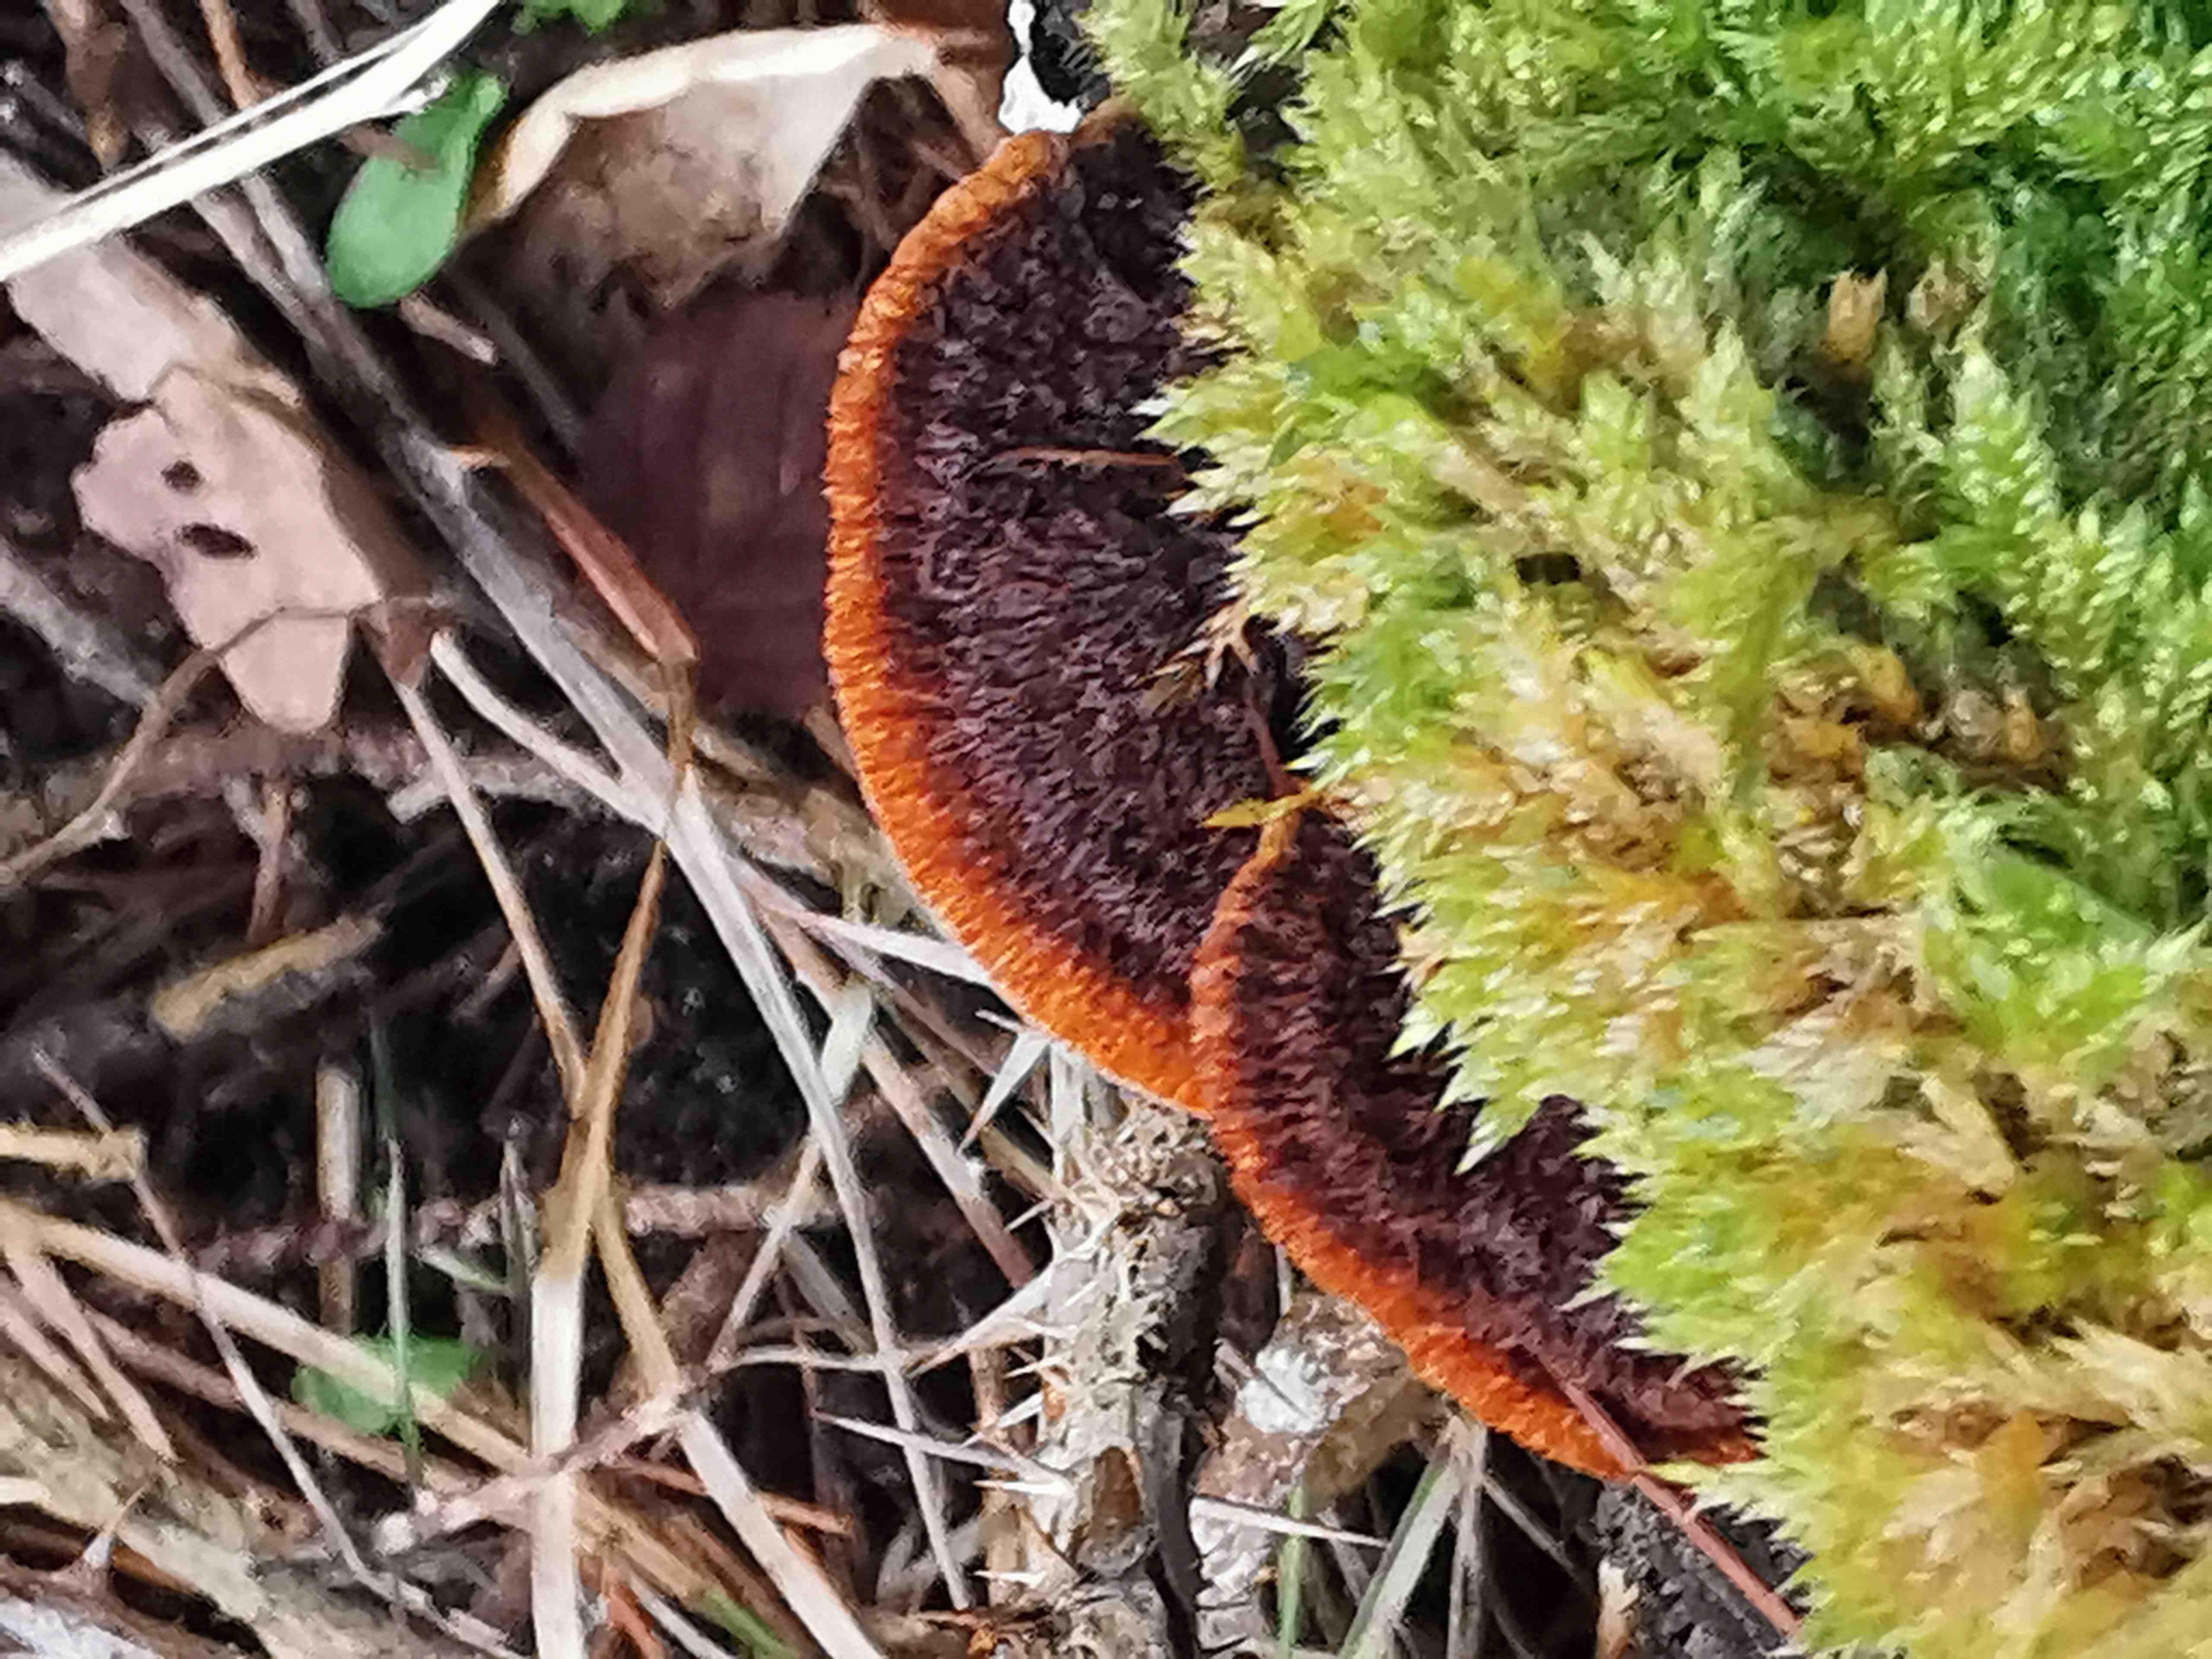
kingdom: Fungi
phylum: Basidiomycota
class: Agaricomycetes
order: Gloeophyllales
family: Gloeophyllaceae
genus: Gloeophyllum
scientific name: Gloeophyllum sepiarium
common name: fyrre-korkhat
